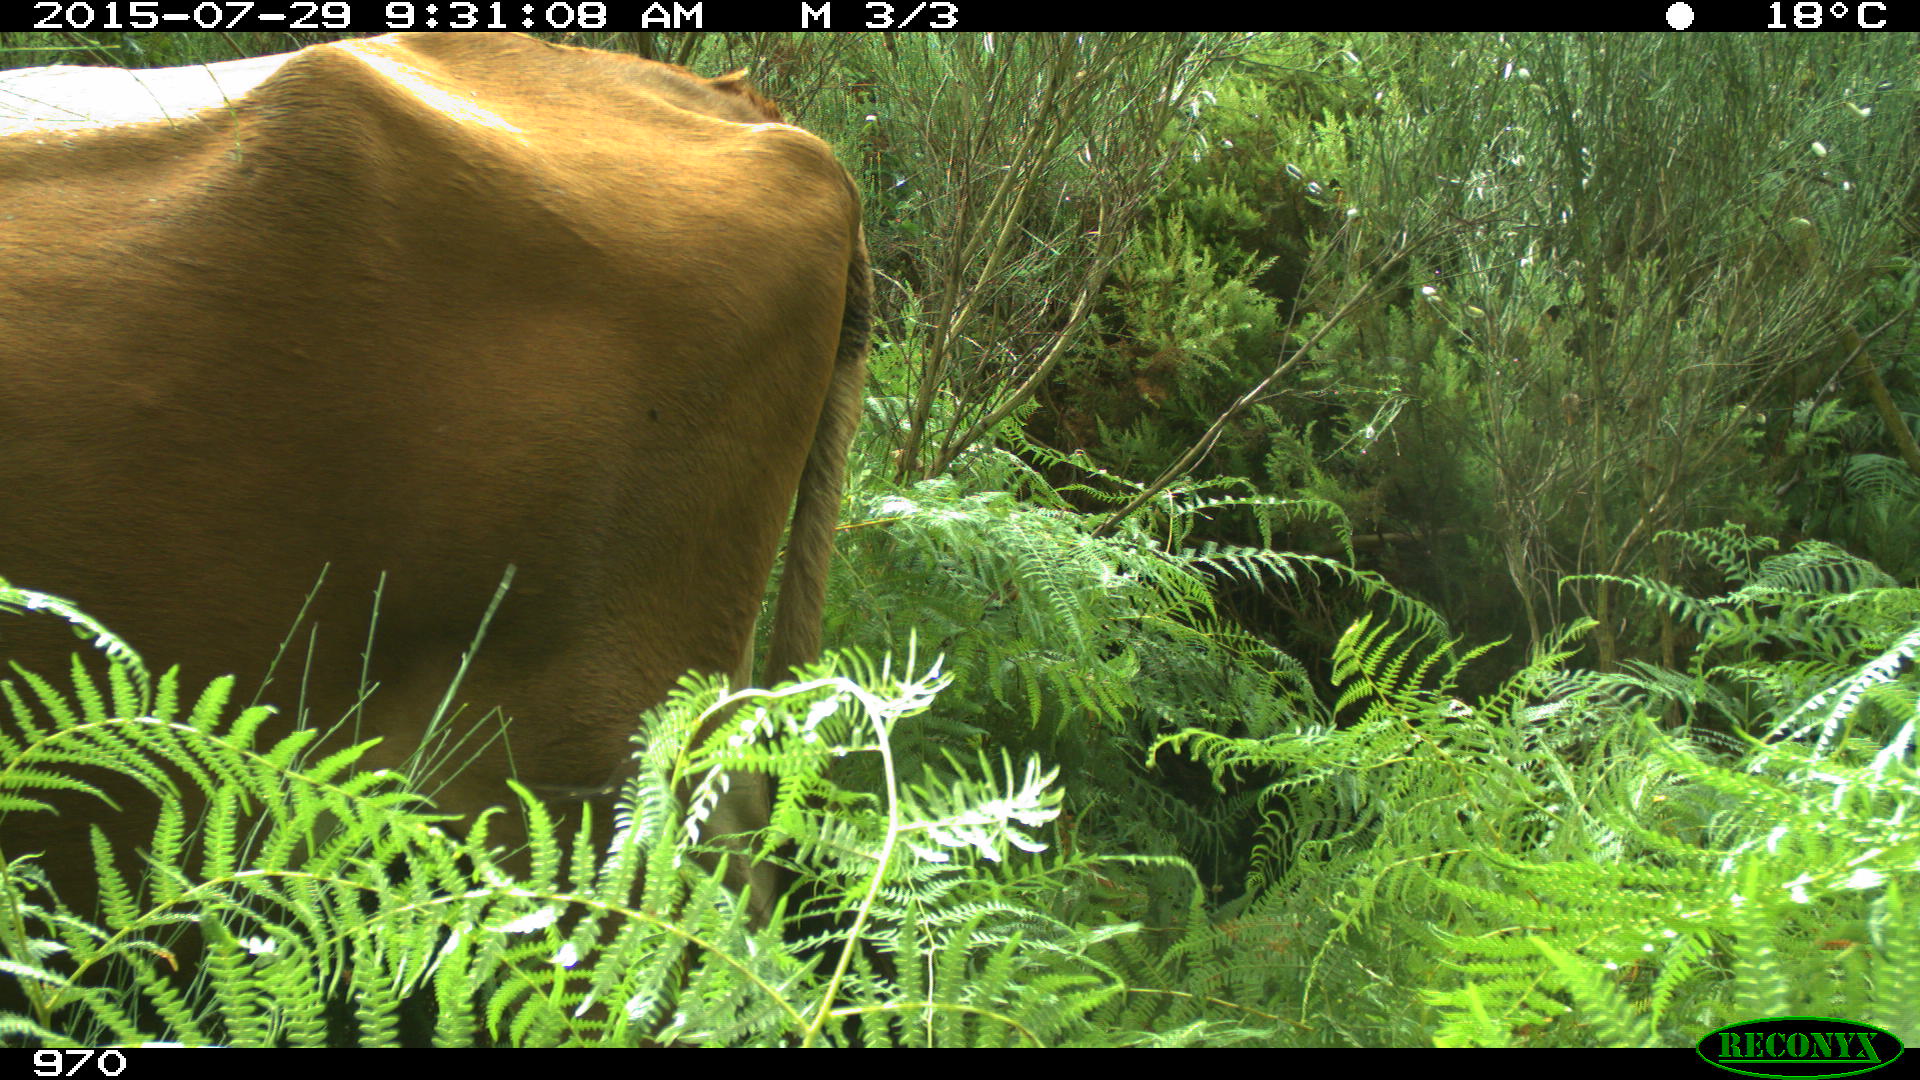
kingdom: Animalia
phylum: Chordata
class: Mammalia
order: Artiodactyla
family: Bovidae
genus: Bos
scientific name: Bos taurus
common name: Domesticated cattle
